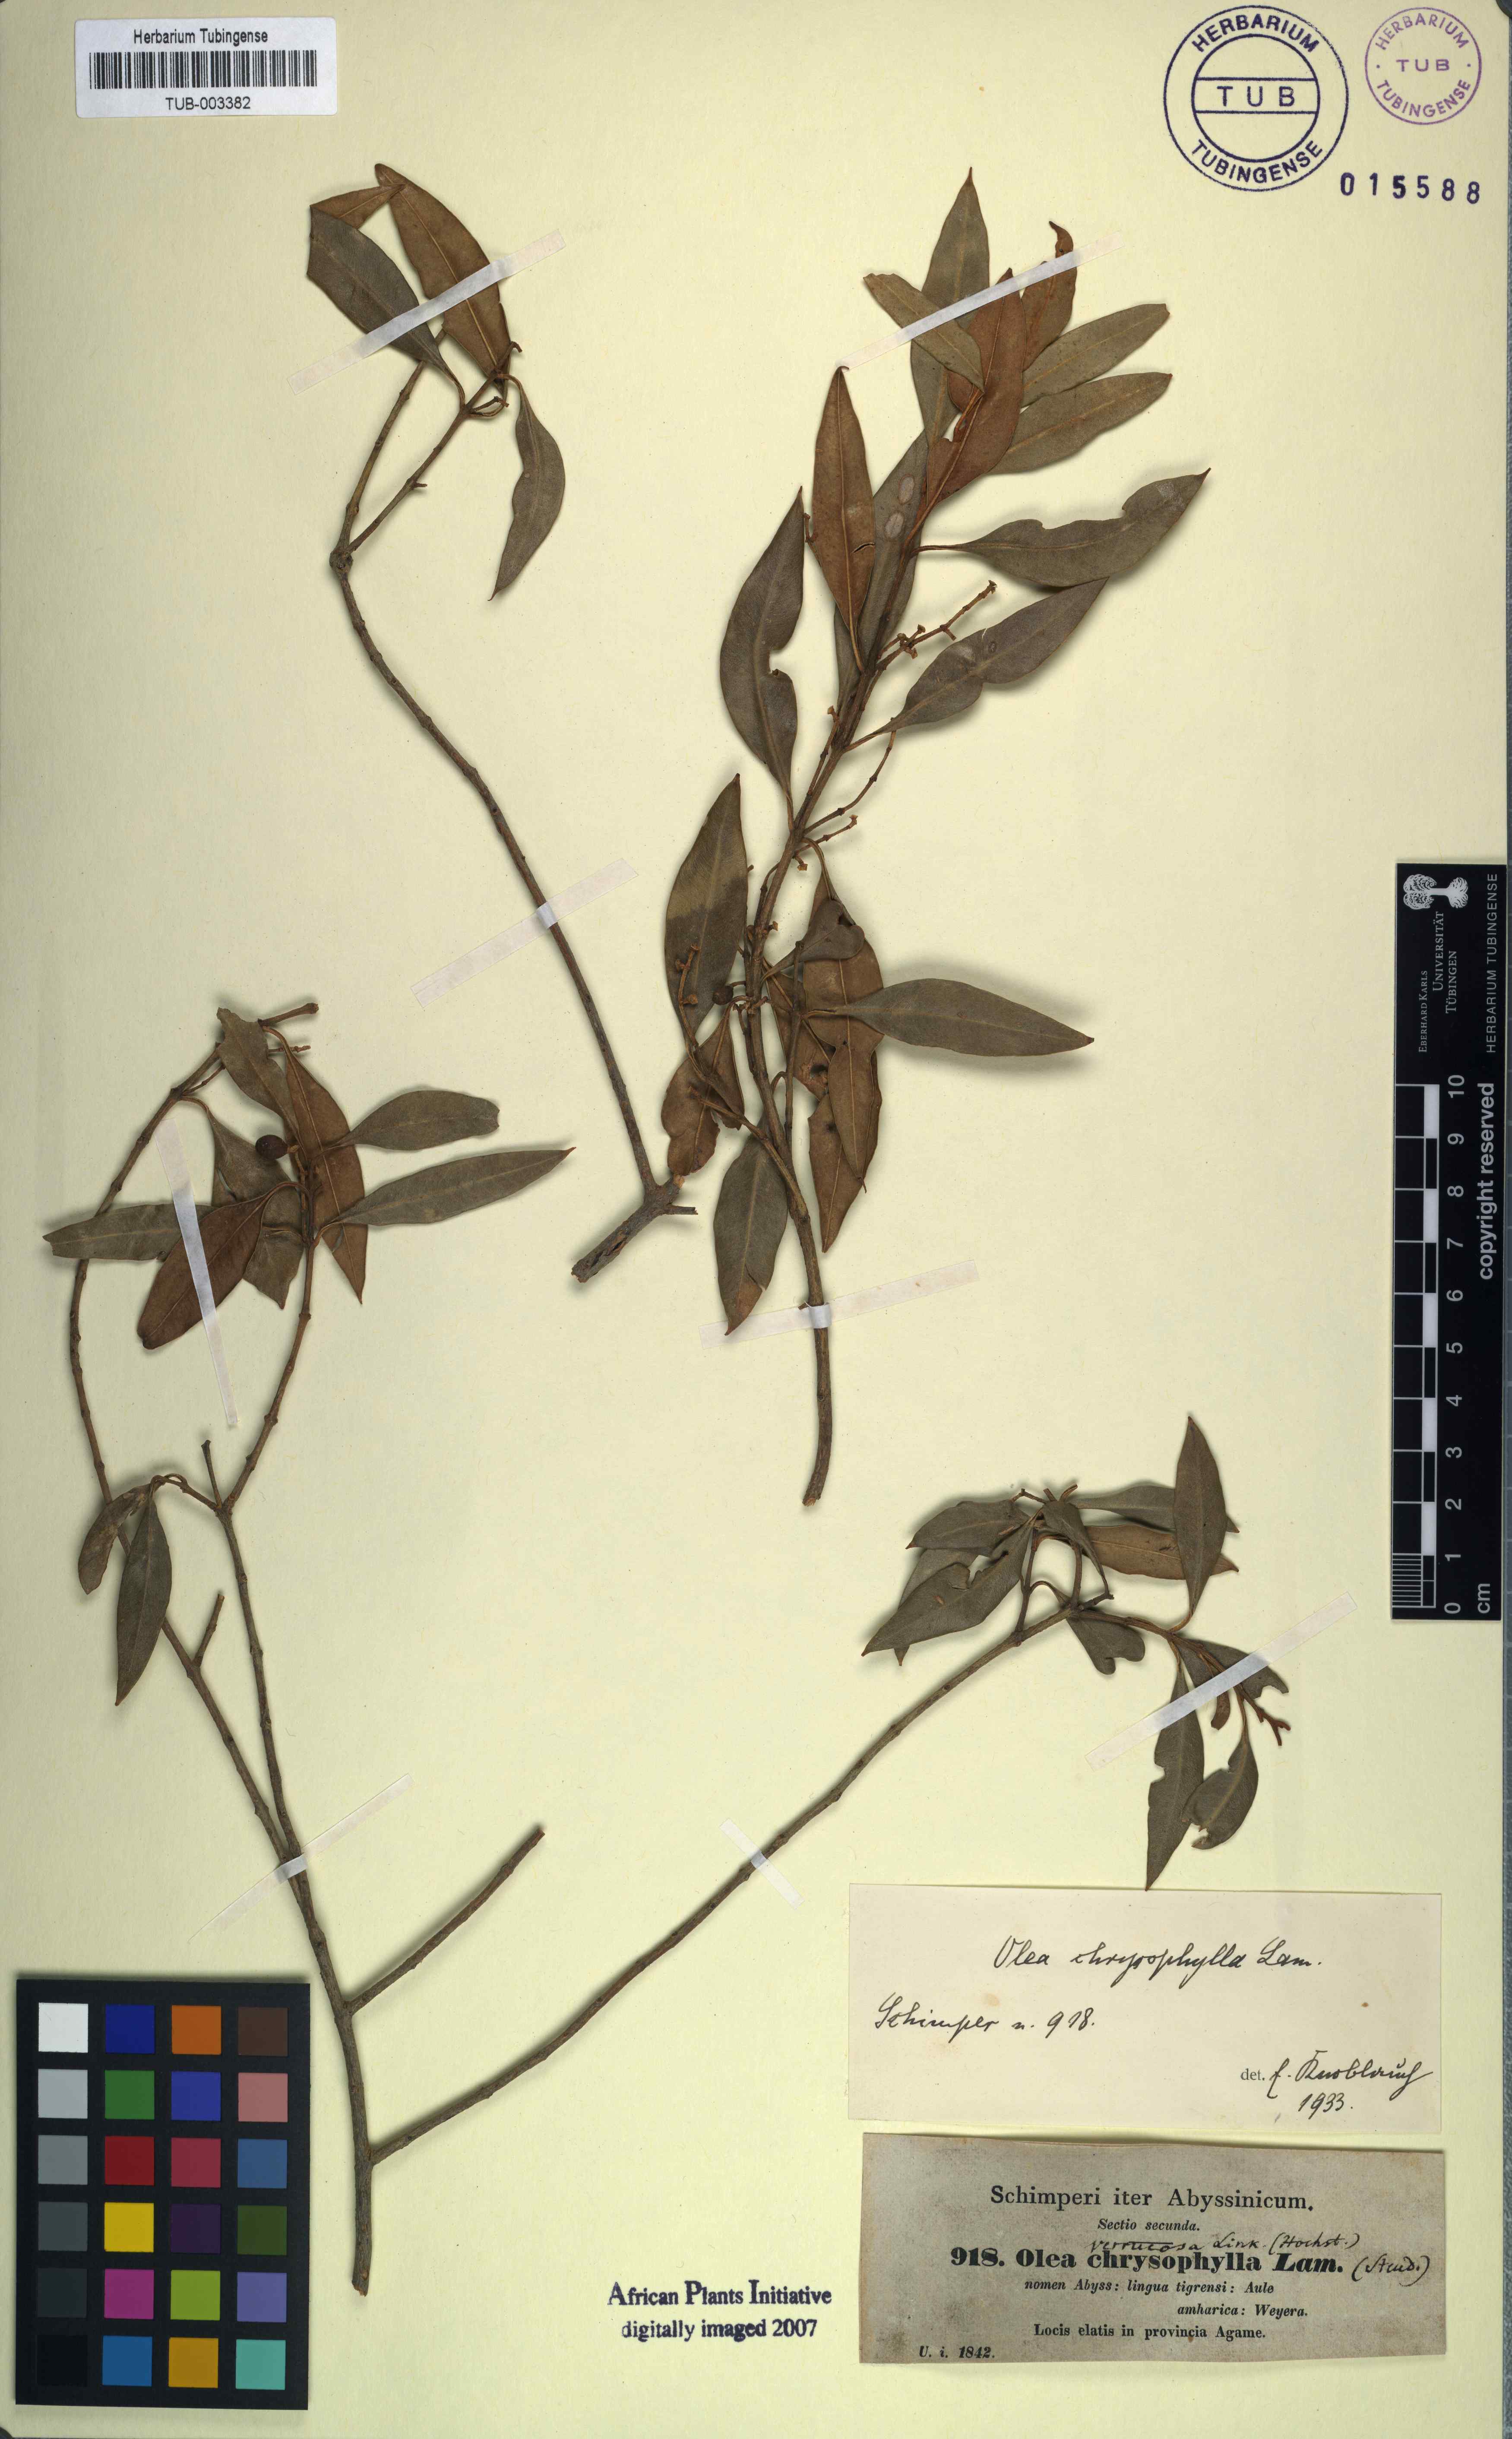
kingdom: Plantae
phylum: Tracheophyta
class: Magnoliopsida
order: Lamiales
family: Oleaceae
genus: Olea
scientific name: Olea europaea
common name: Olive
